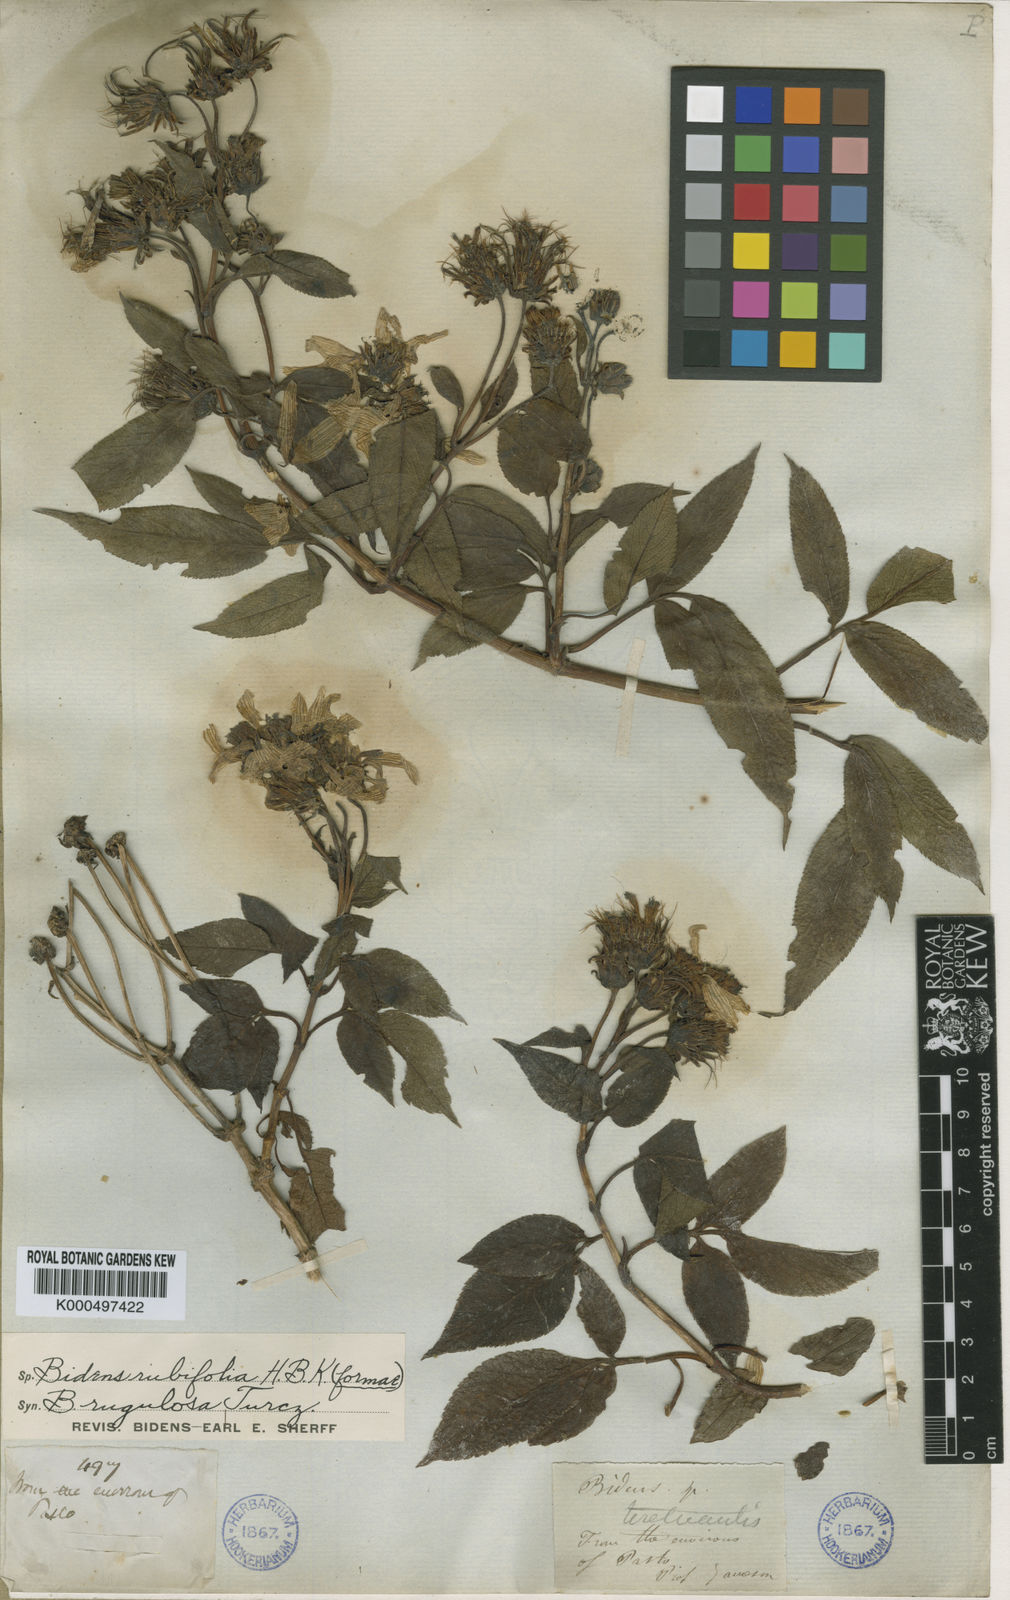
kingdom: Plantae
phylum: Tracheophyta
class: Magnoliopsida
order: Asterales
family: Asteraceae
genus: Bidens
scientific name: Bidens rubifolia
